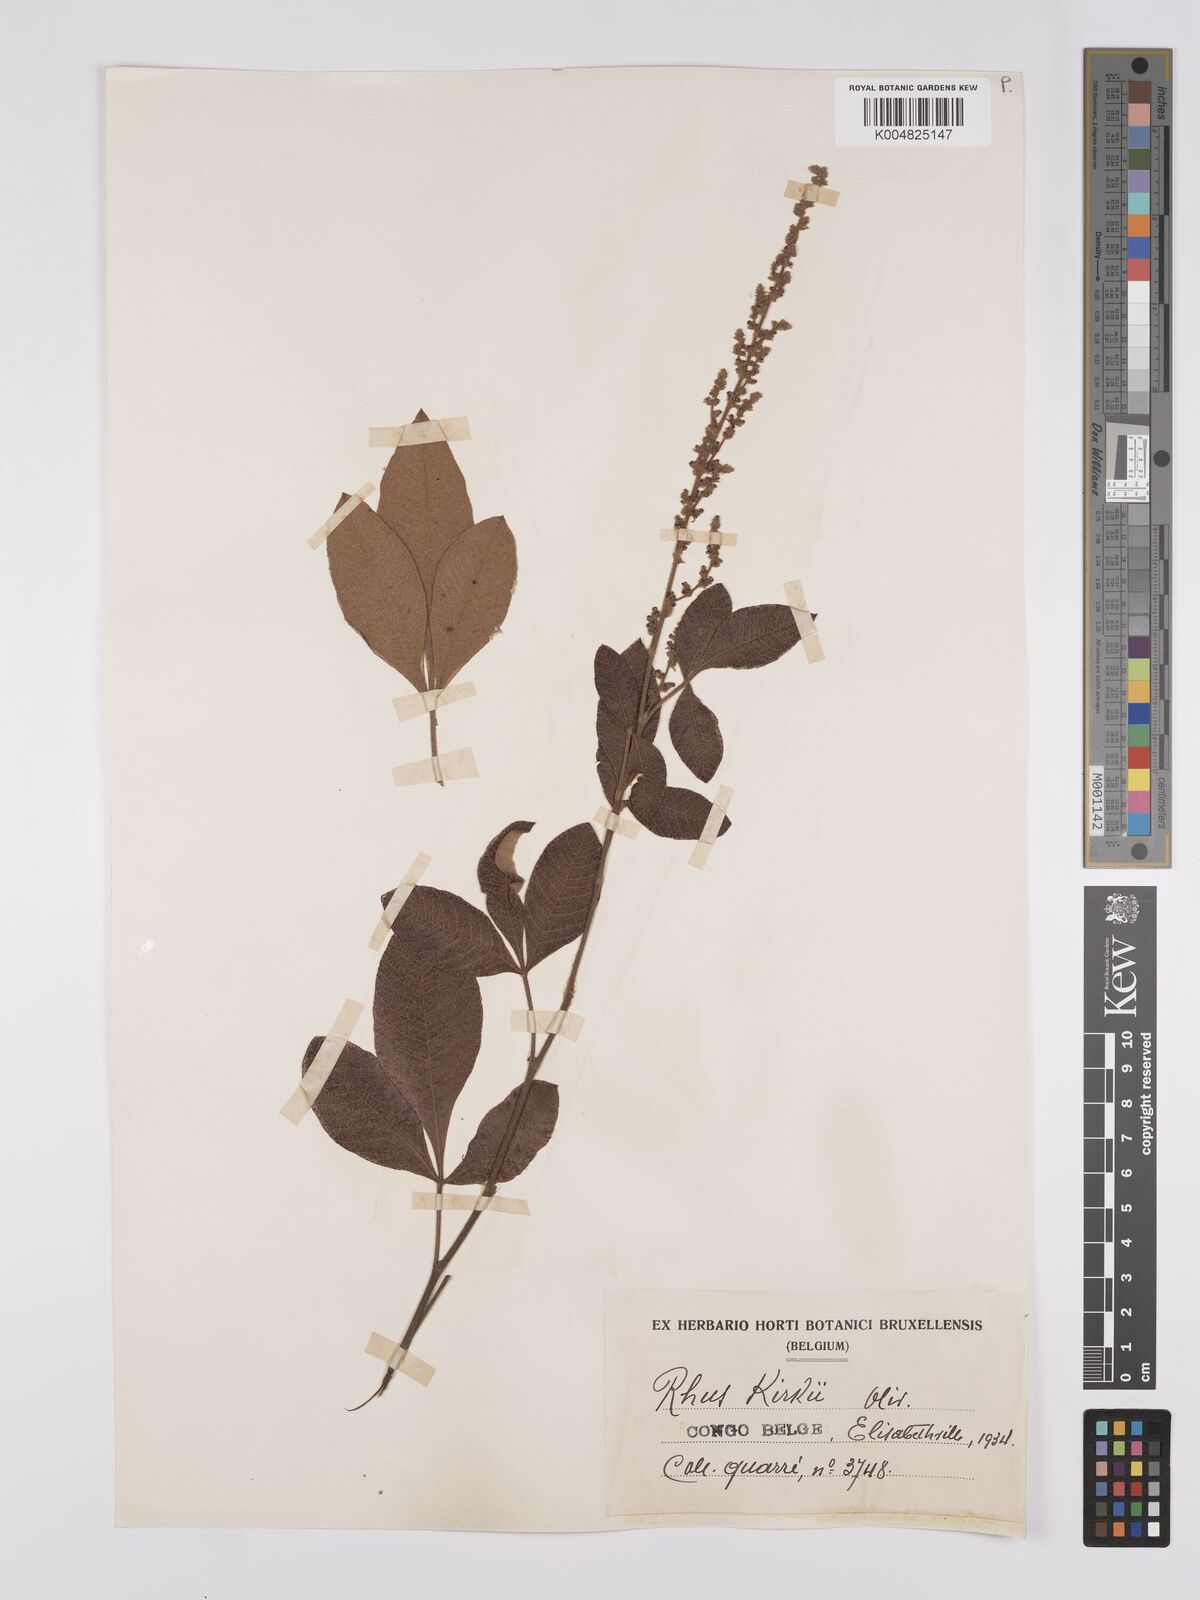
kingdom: Plantae
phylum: Tracheophyta
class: Magnoliopsida
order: Sapindales
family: Anacardiaceae
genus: Searsia
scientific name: Searsia kirkii
